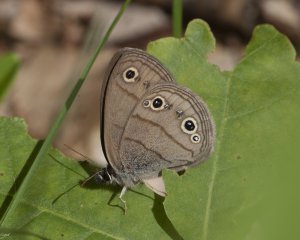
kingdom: Animalia
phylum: Arthropoda
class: Insecta
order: Lepidoptera
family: Nymphalidae
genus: Euptychia
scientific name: Euptychia cymela
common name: Little Wood Satyr
